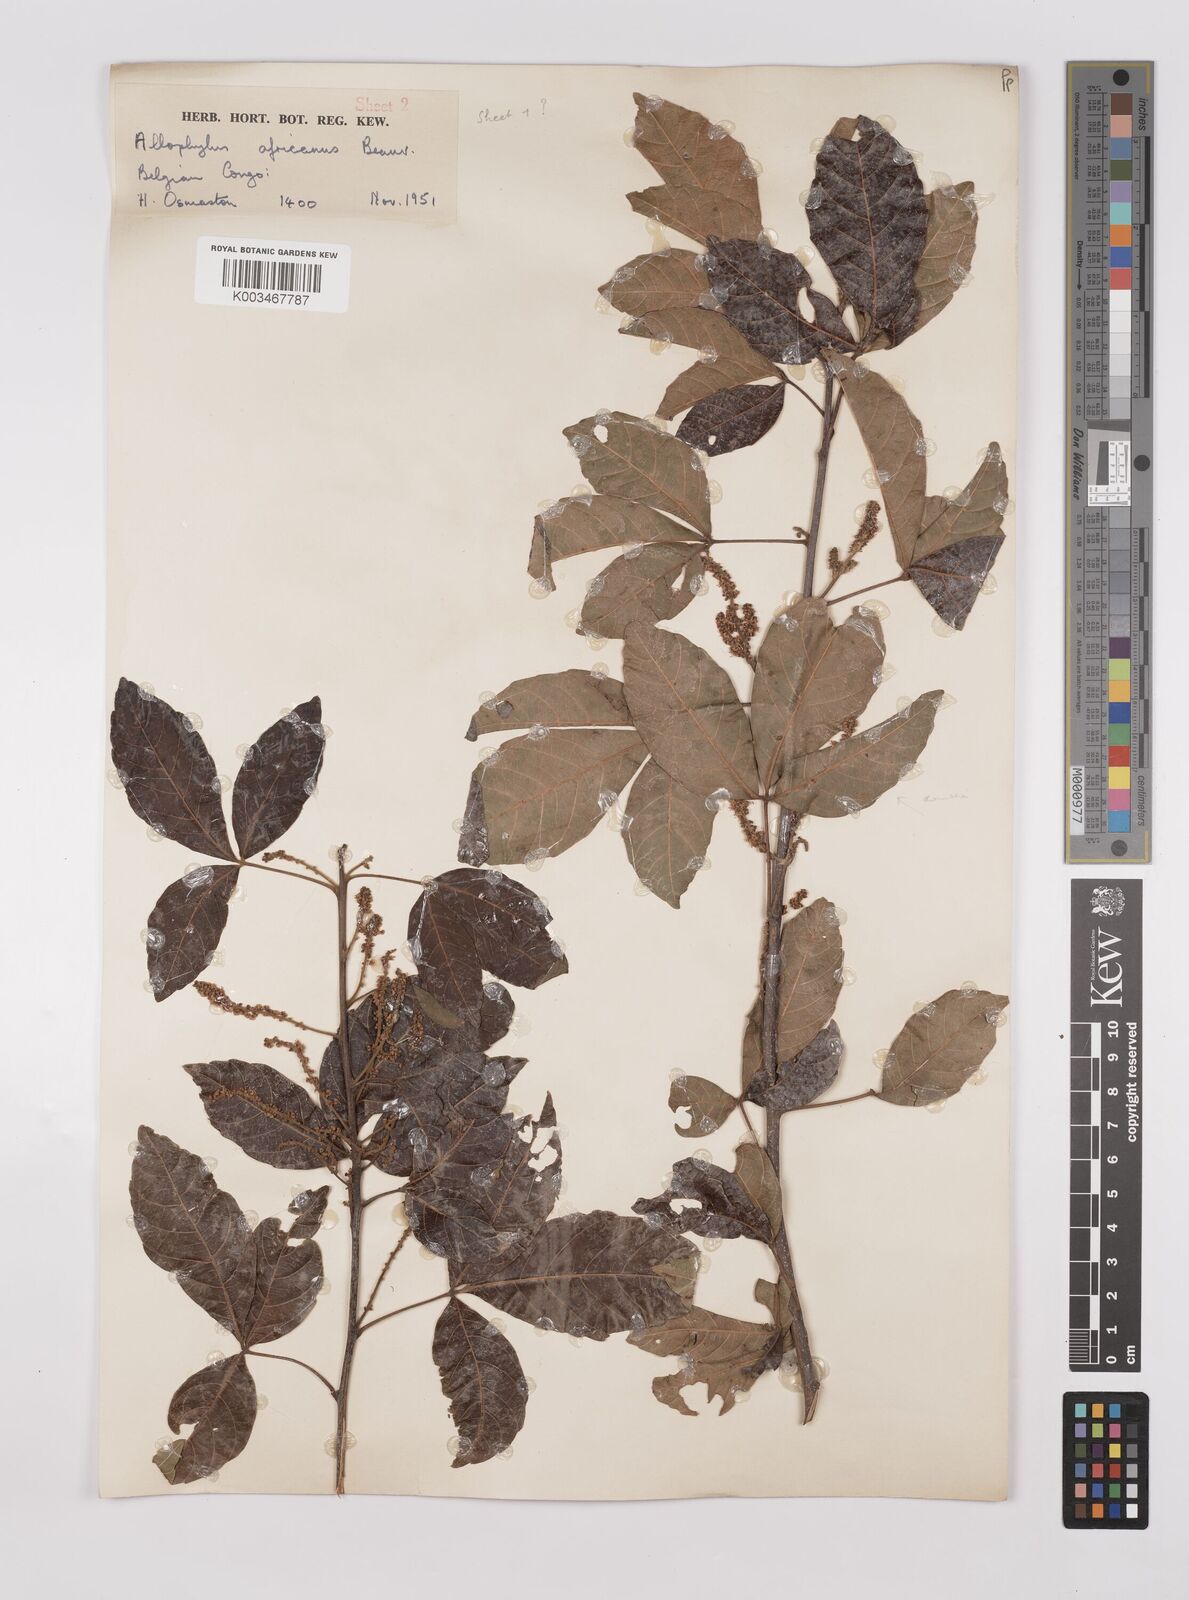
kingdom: Plantae
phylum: Tracheophyta
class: Magnoliopsida
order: Sapindales
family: Sapindaceae
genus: Allophylus
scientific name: Allophylus africanus
